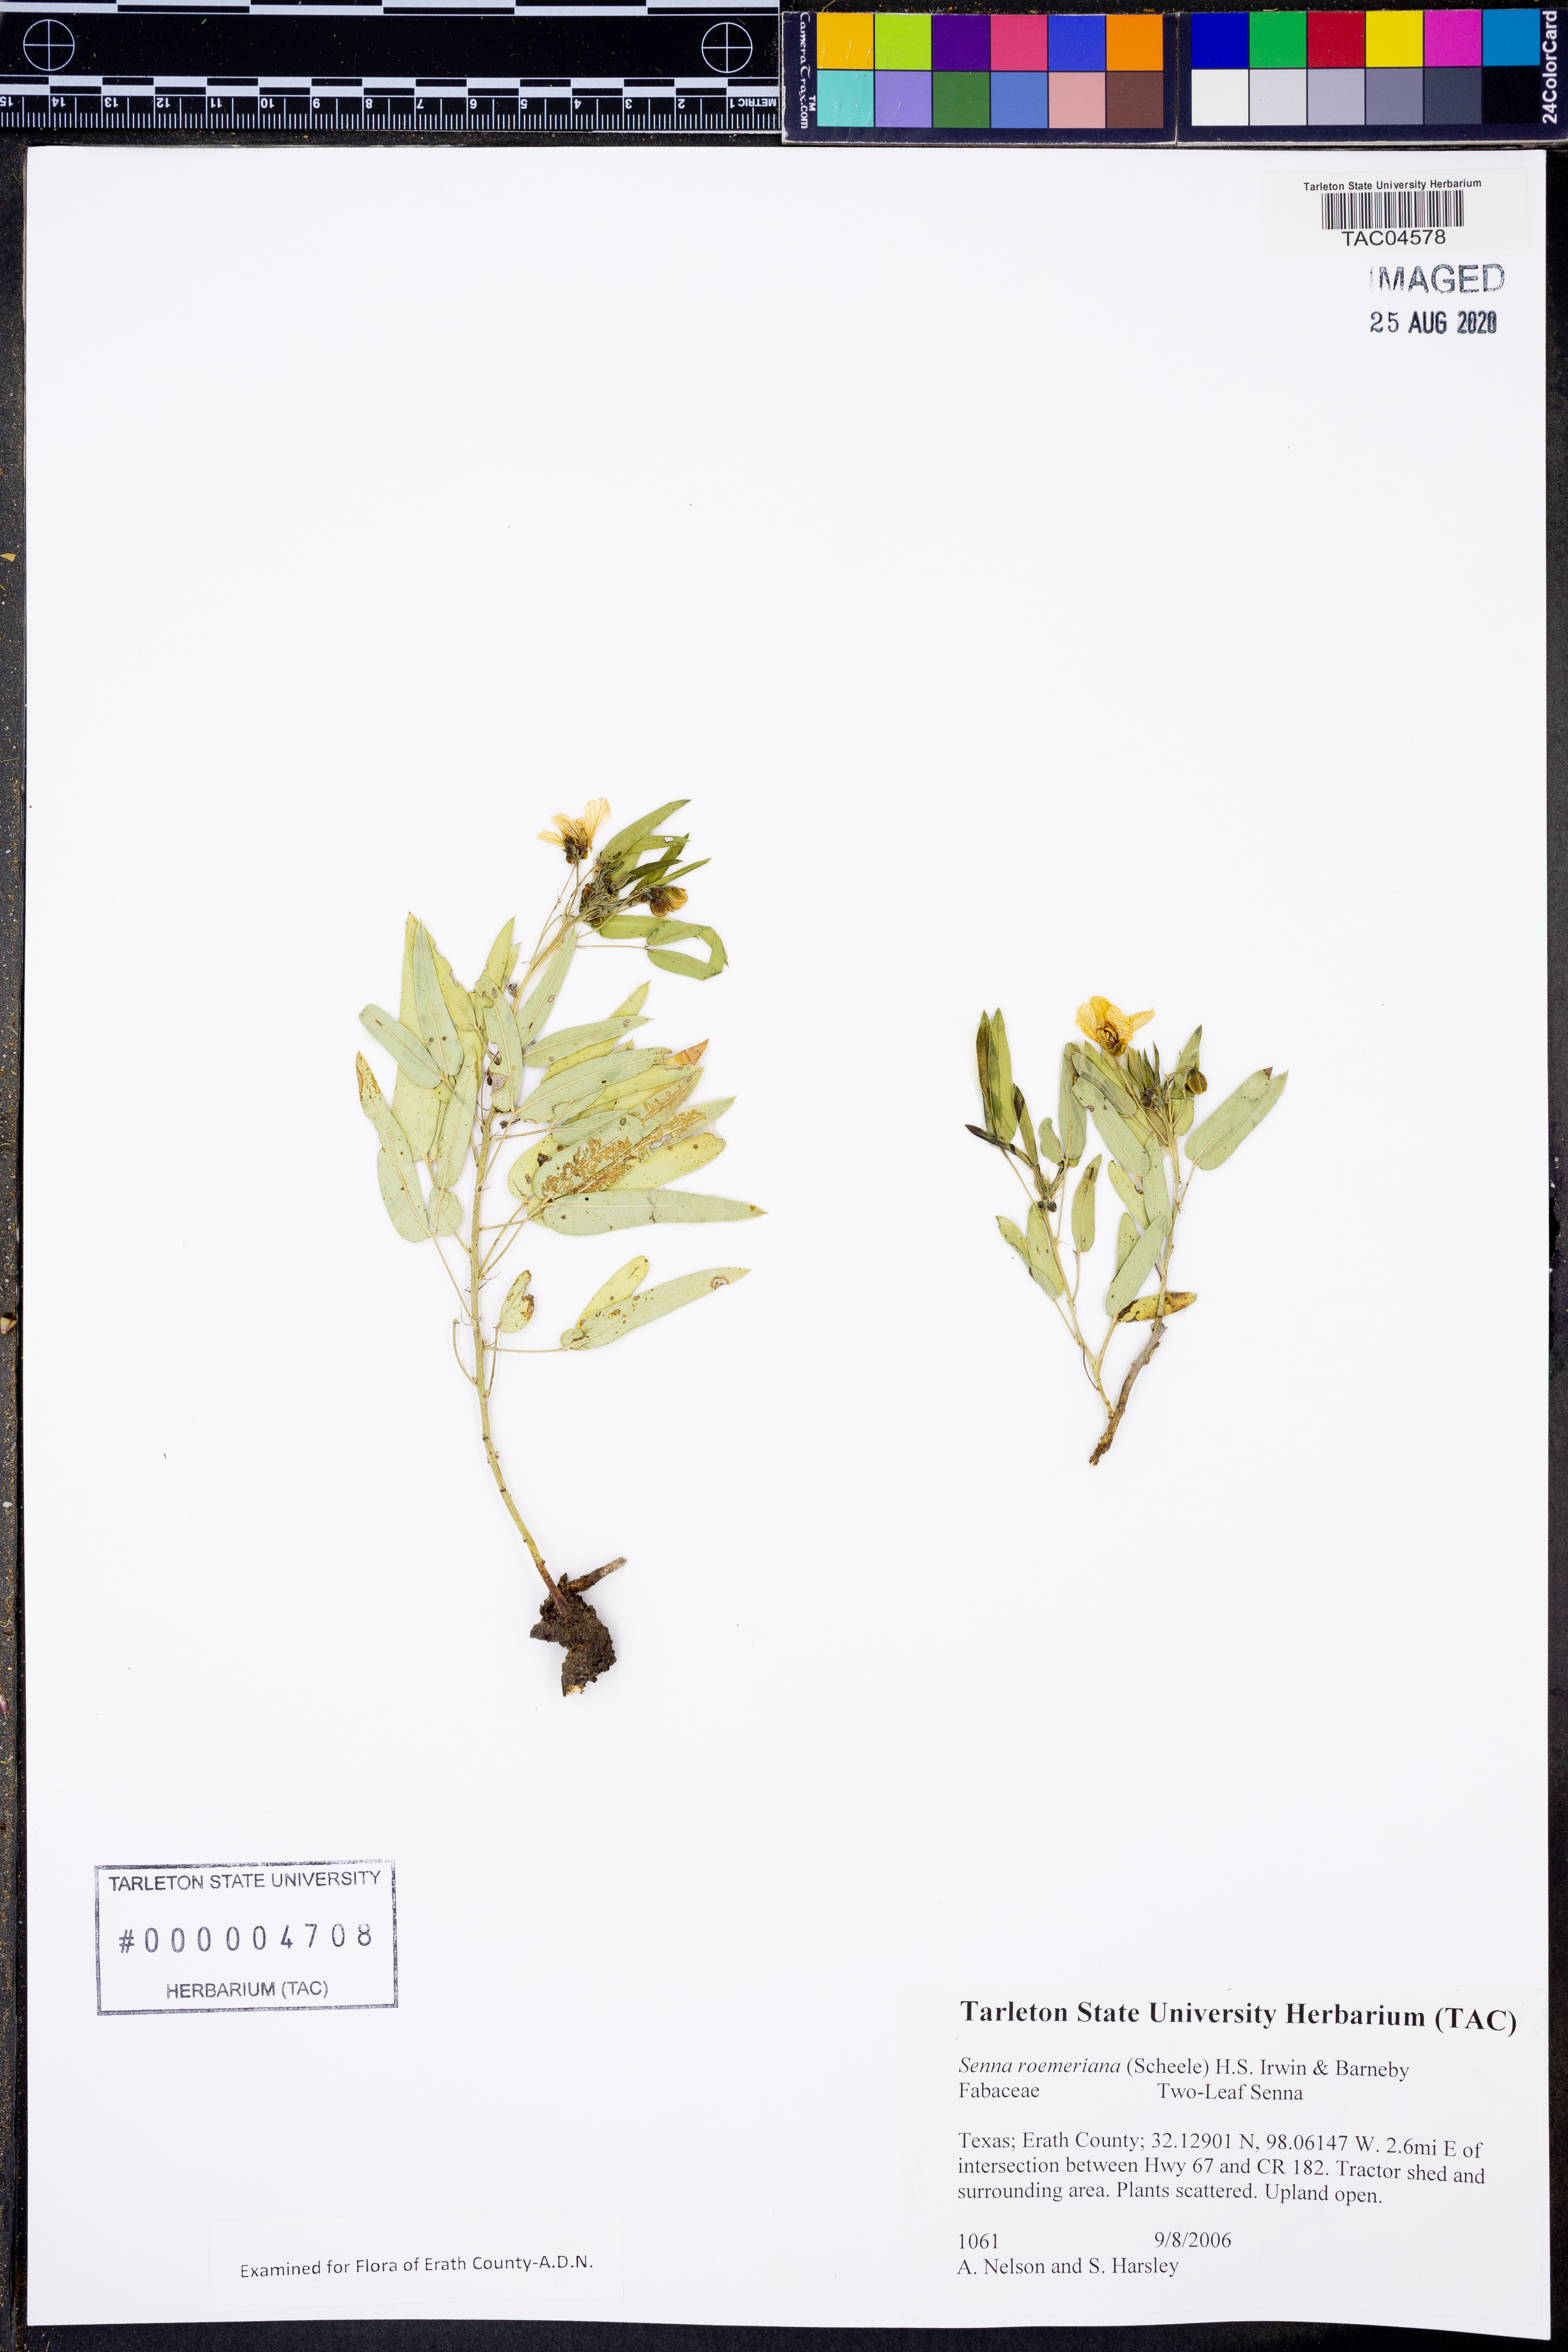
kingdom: Plantae
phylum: Tracheophyta
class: Magnoliopsida
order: Fabales
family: Fabaceae
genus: Senna
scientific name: Senna roemeriana
